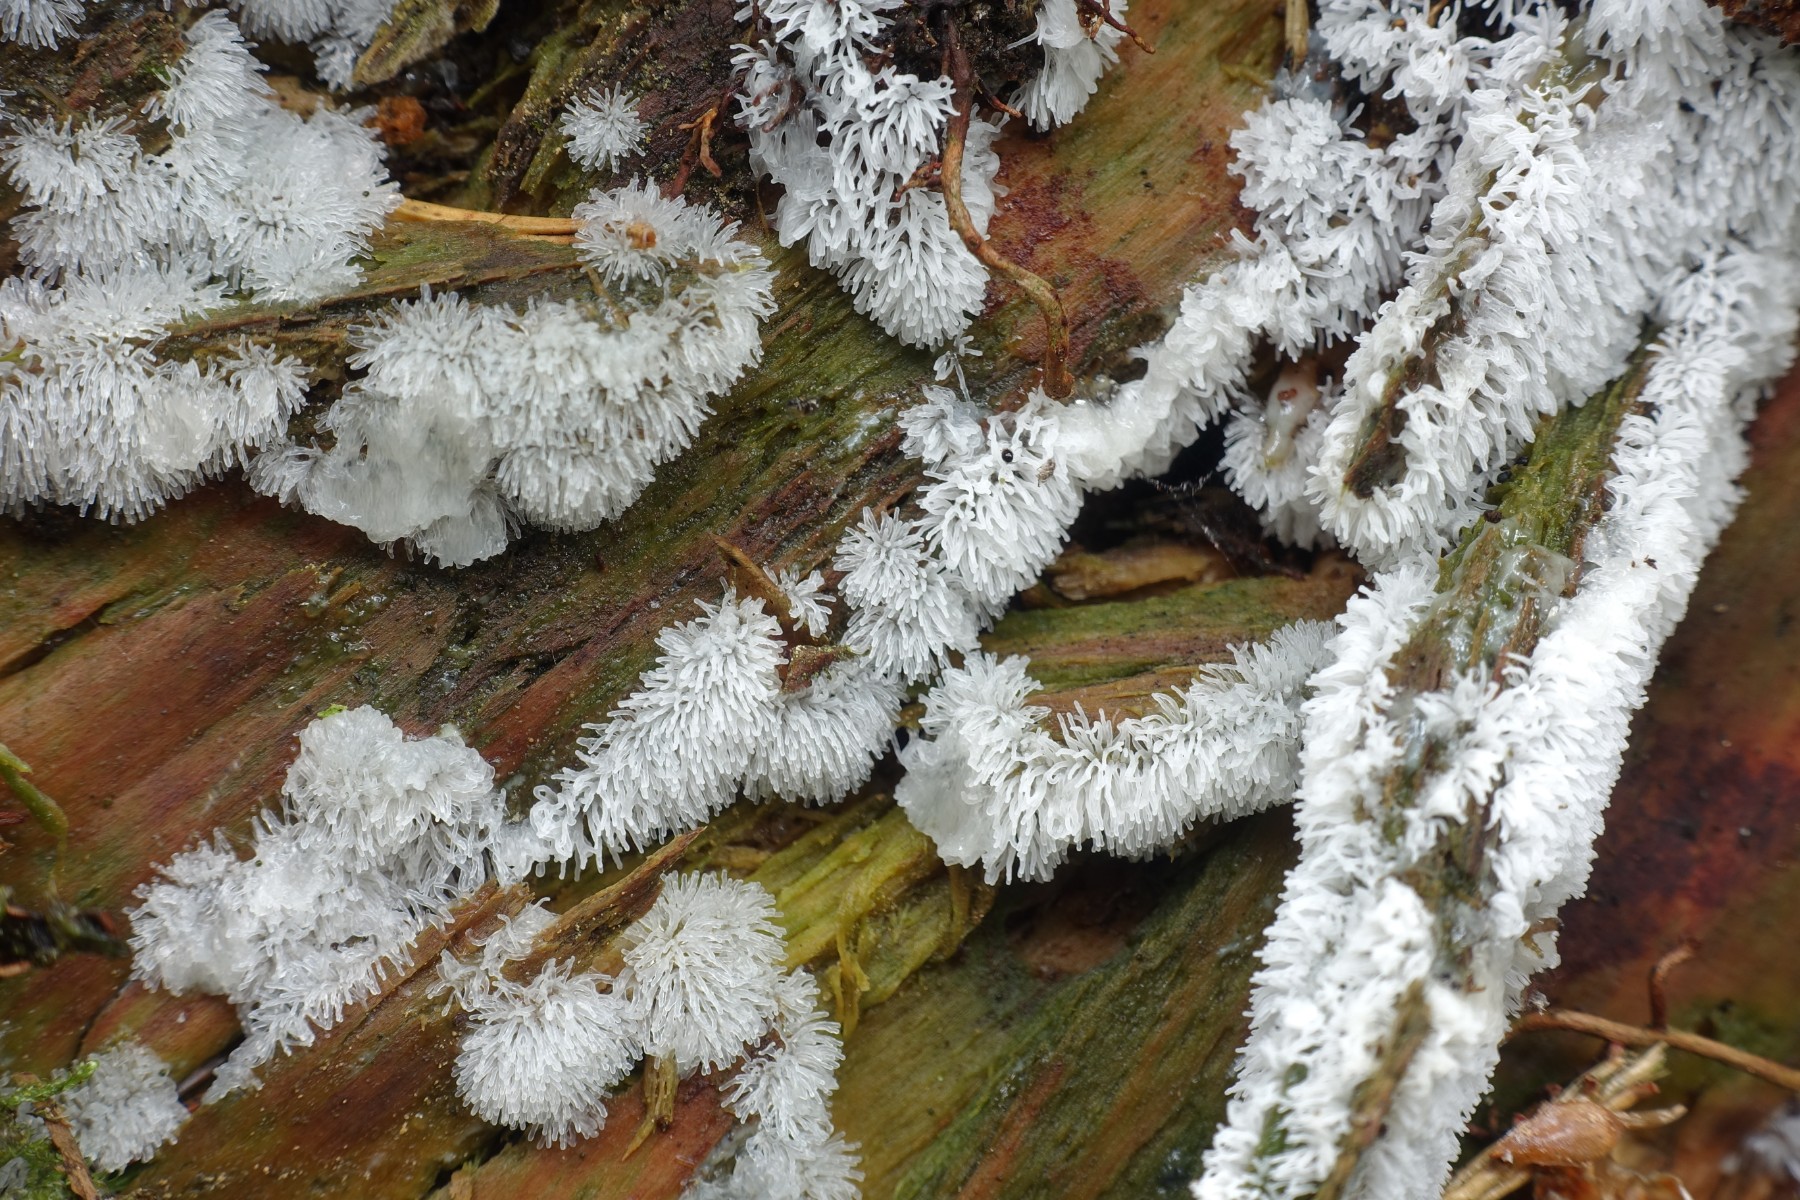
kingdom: Protozoa
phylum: Mycetozoa
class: Protosteliomycetes
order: Ceratiomyxales
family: Ceratiomyxaceae
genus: Ceratiomyxa
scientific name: Ceratiomyxa fruticulosa
